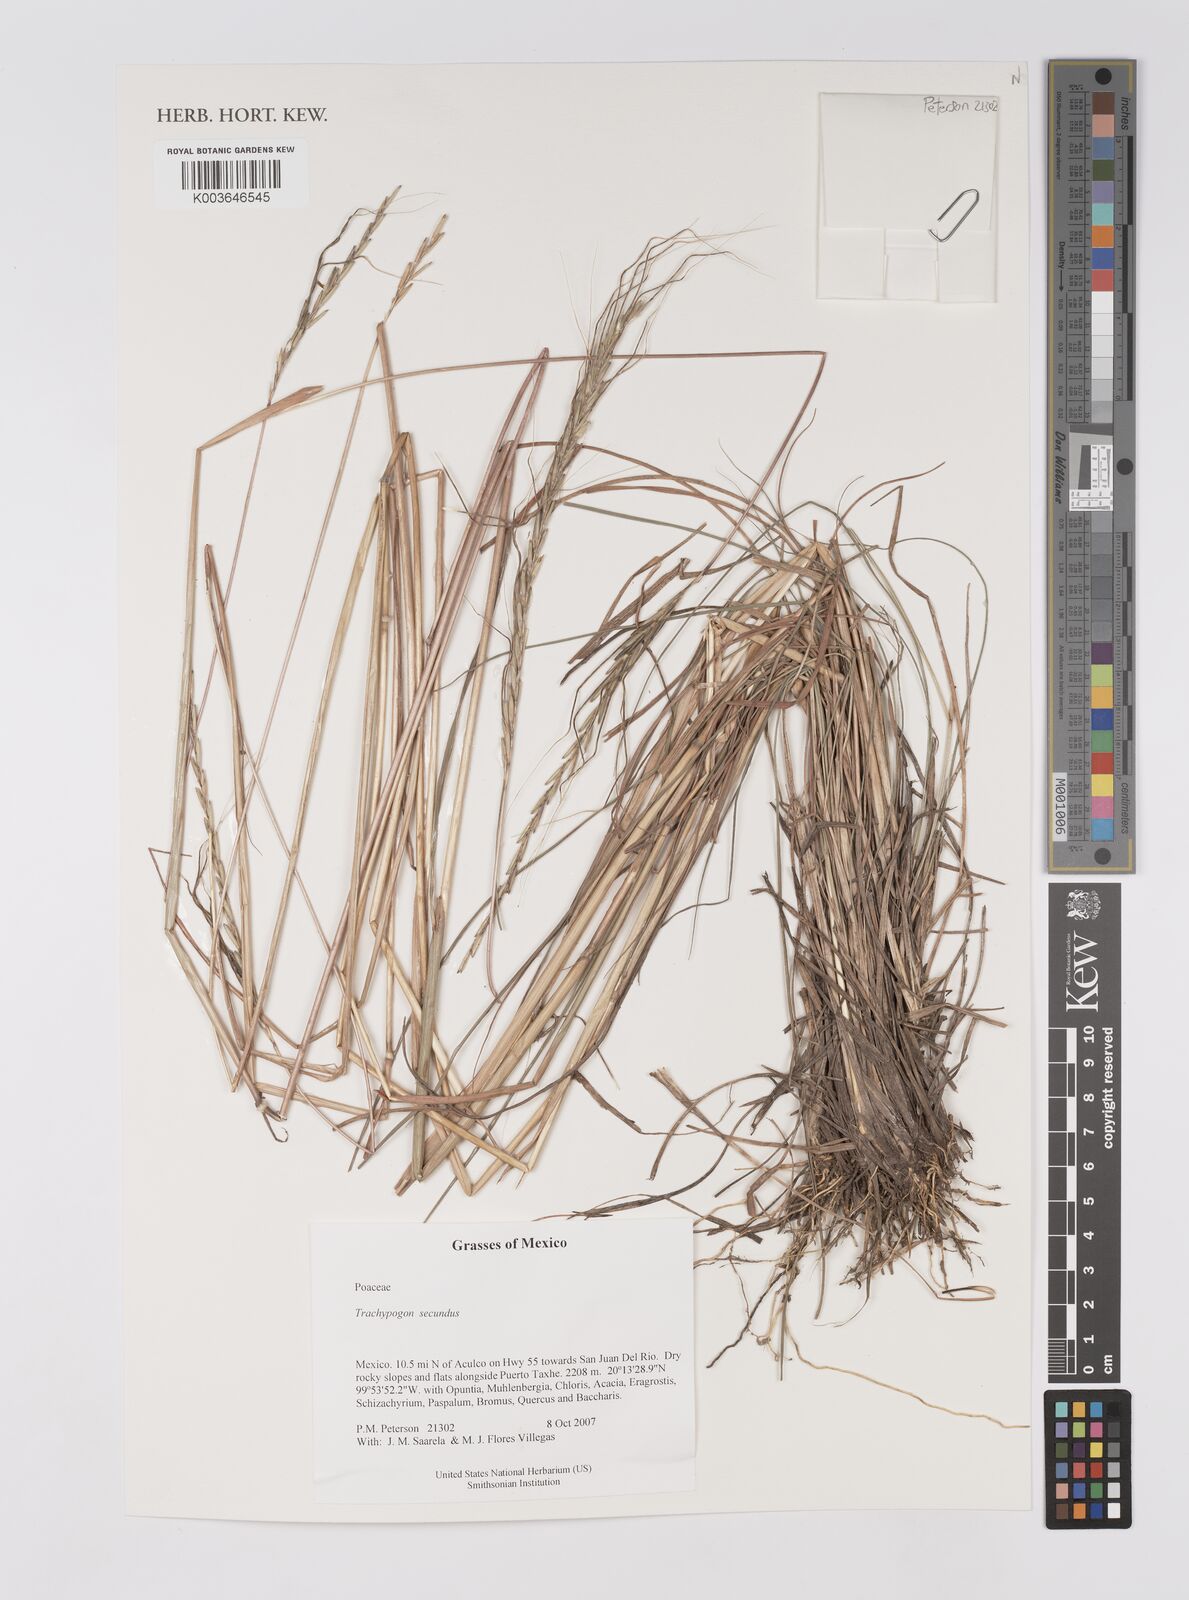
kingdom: Plantae
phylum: Tracheophyta
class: Liliopsida
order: Poales
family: Poaceae
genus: Trachypogon
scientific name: Trachypogon spicatus
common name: Crinkle-awn
